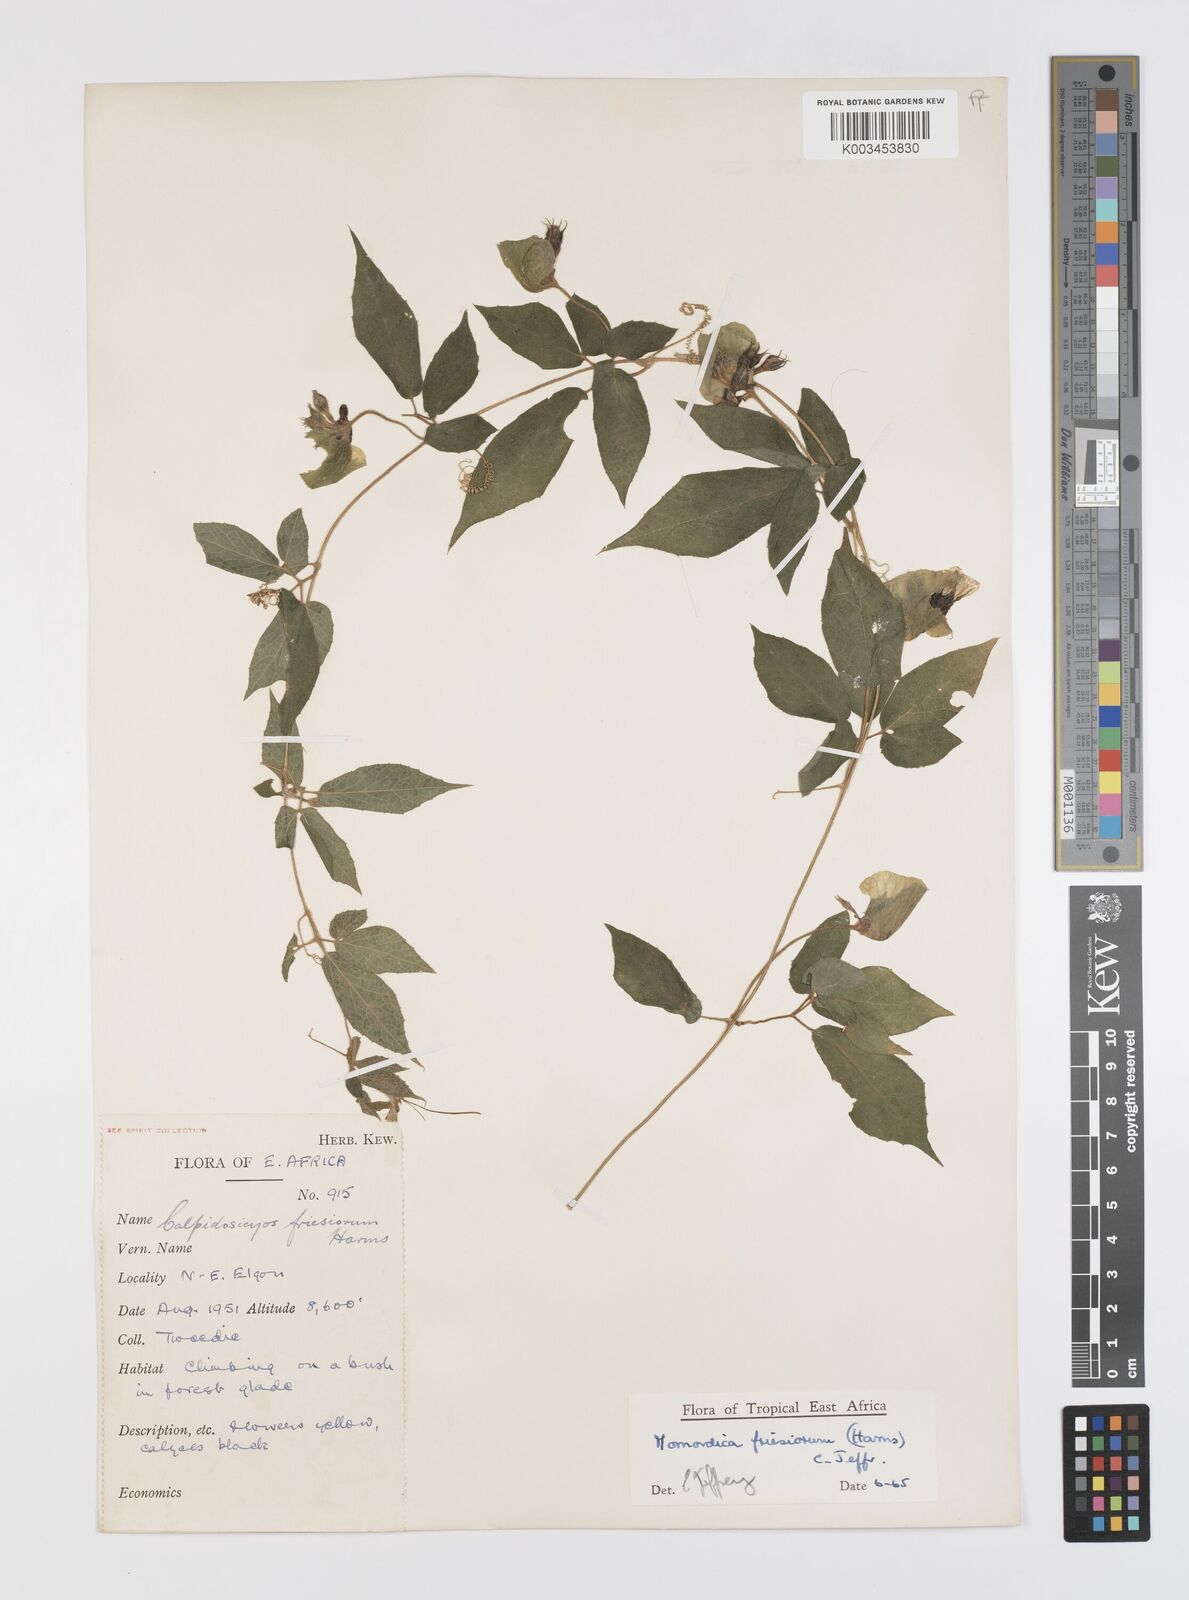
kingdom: Plantae
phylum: Tracheophyta
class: Magnoliopsida
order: Cucurbitales
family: Cucurbitaceae
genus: Momordica
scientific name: Momordica friesiorum
